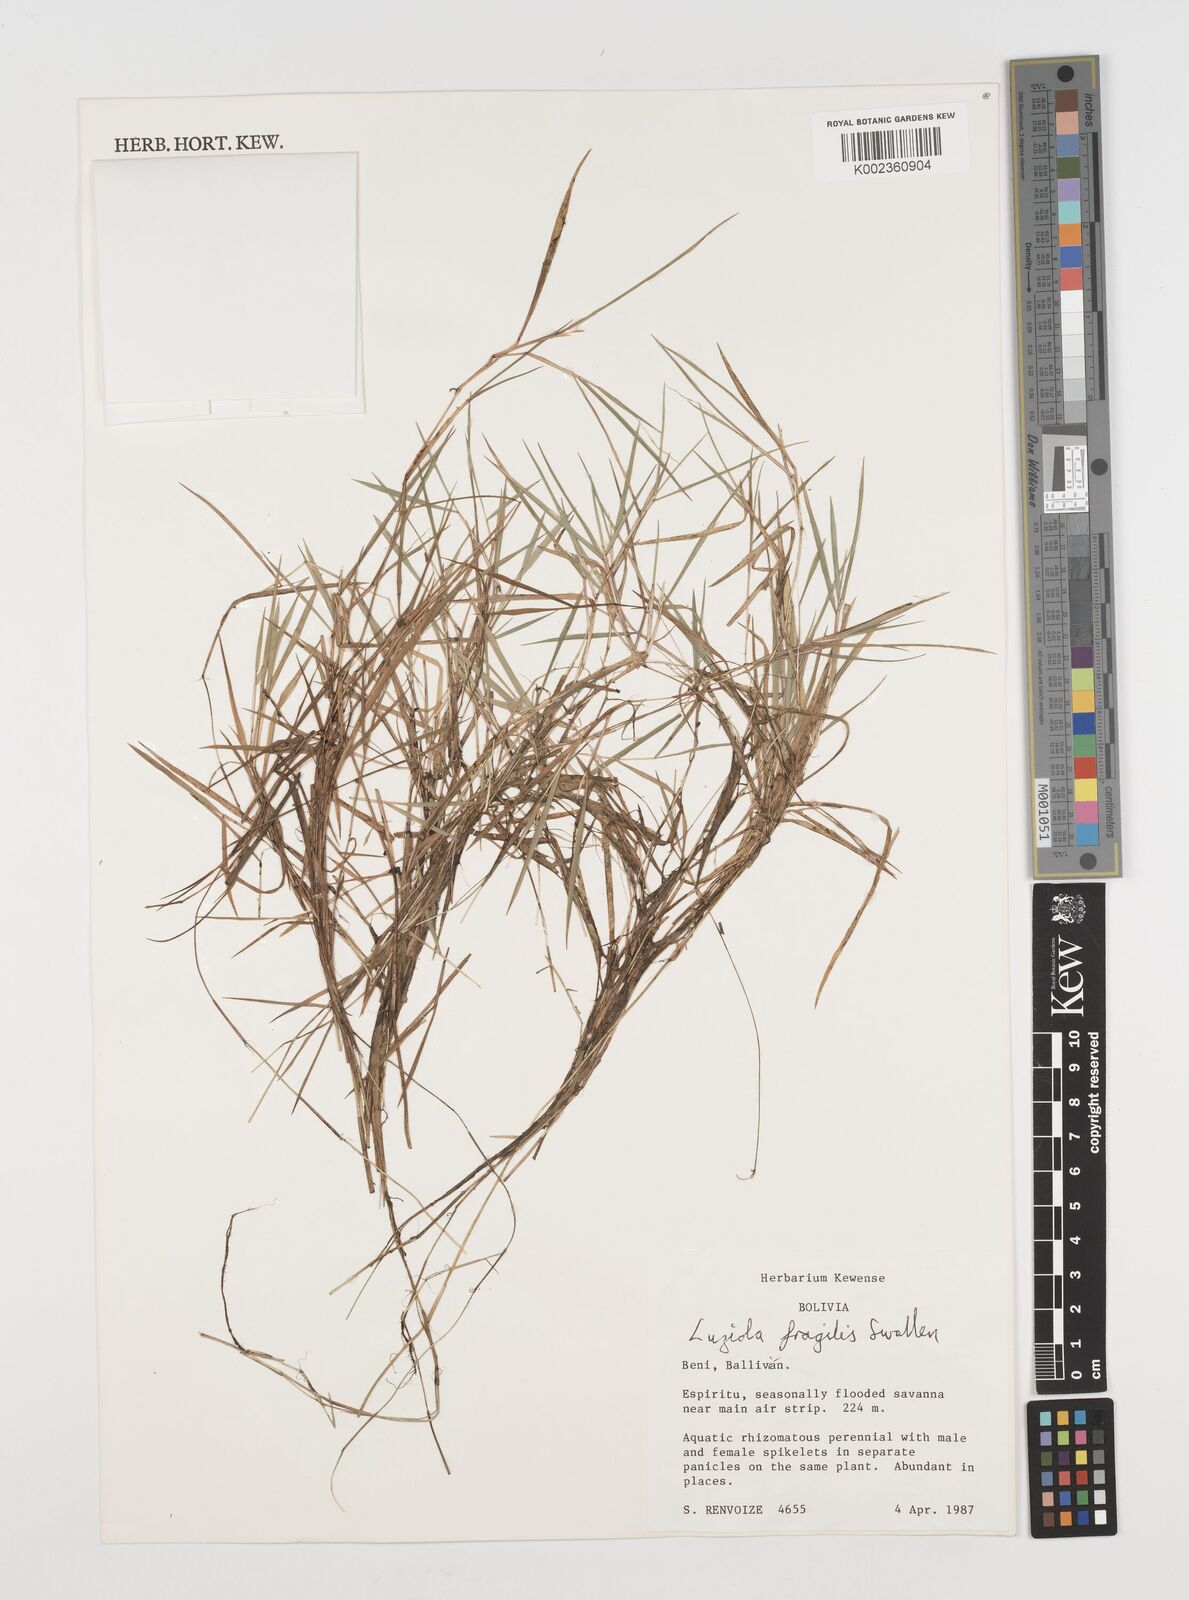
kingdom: Plantae
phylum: Tracheophyta
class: Liliopsida
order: Poales
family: Poaceae
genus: Luziola
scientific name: Luziola fragilis
